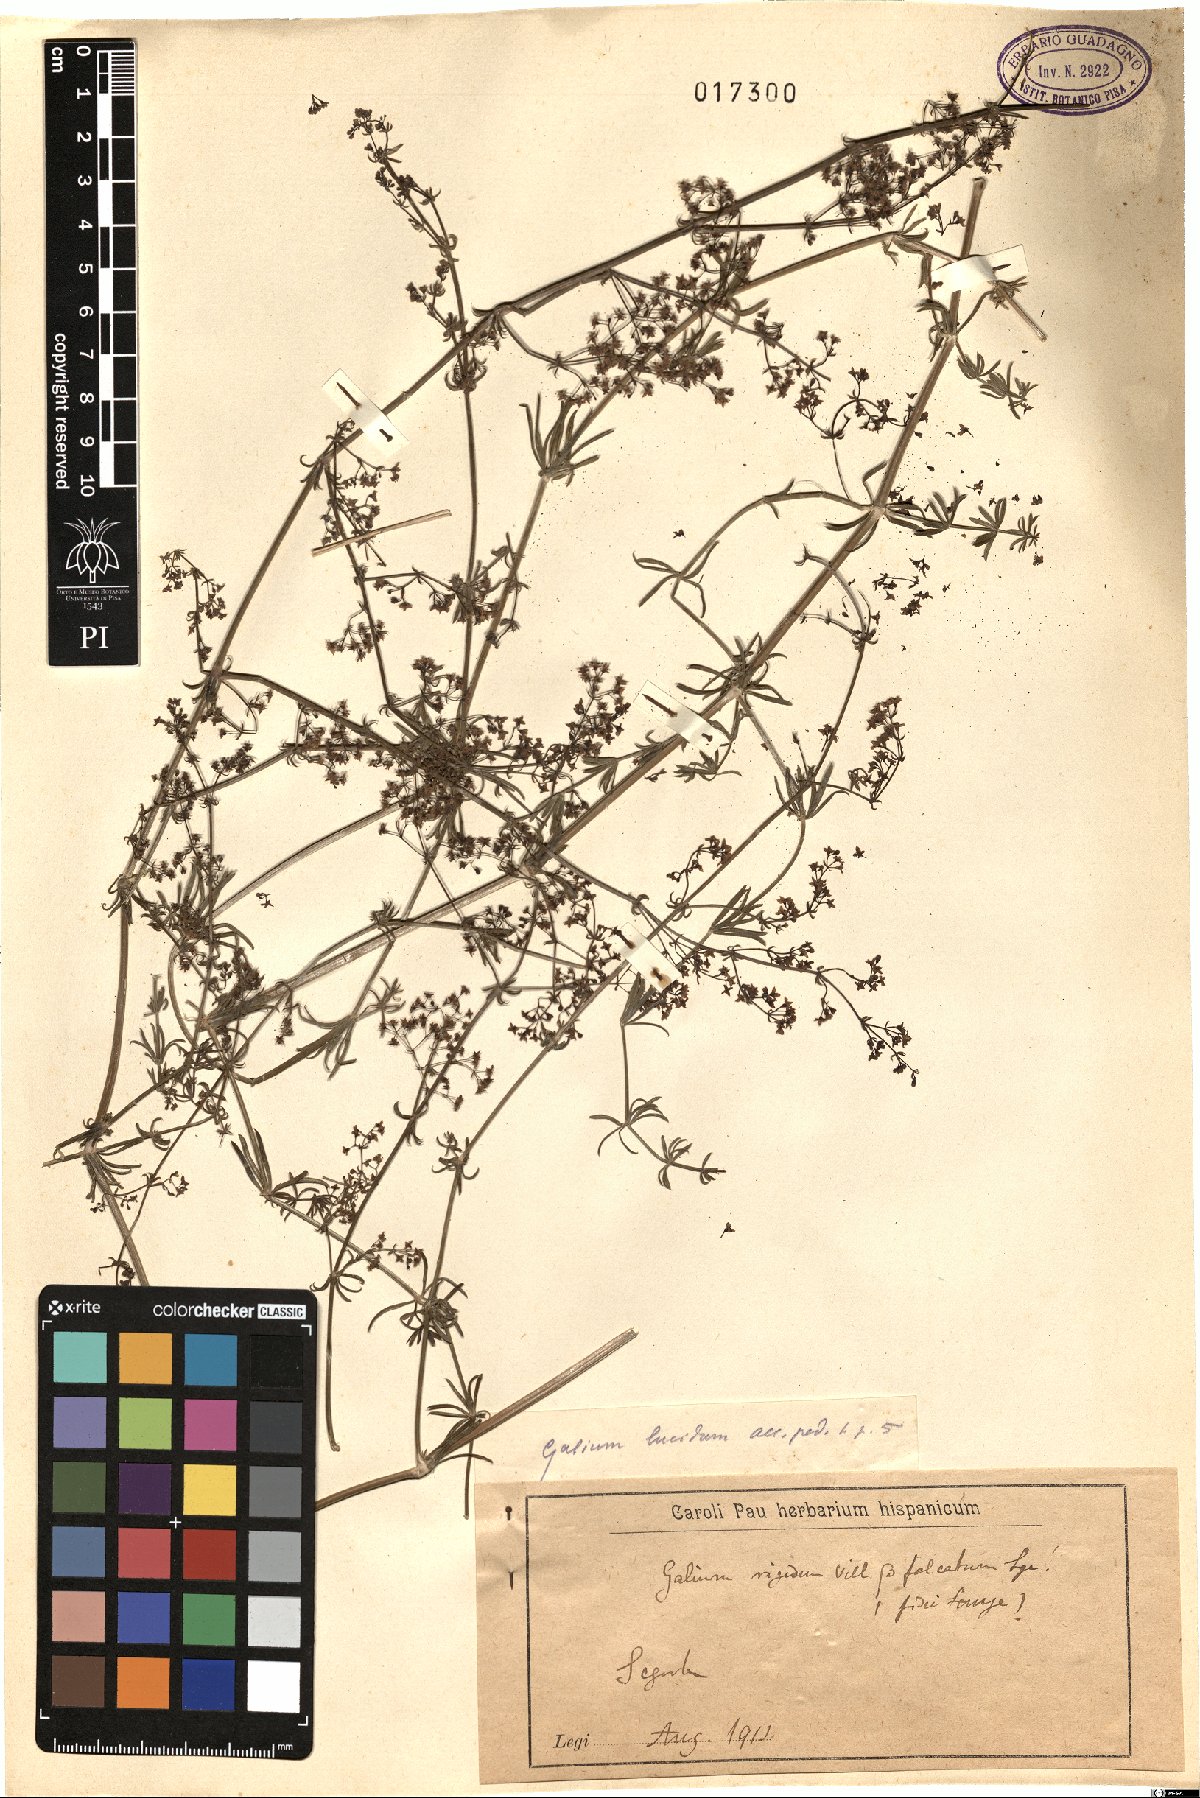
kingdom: Plantae
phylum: Tracheophyta
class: Magnoliopsida
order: Gentianales
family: Rubiaceae
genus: Galium
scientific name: Galium lucidum
